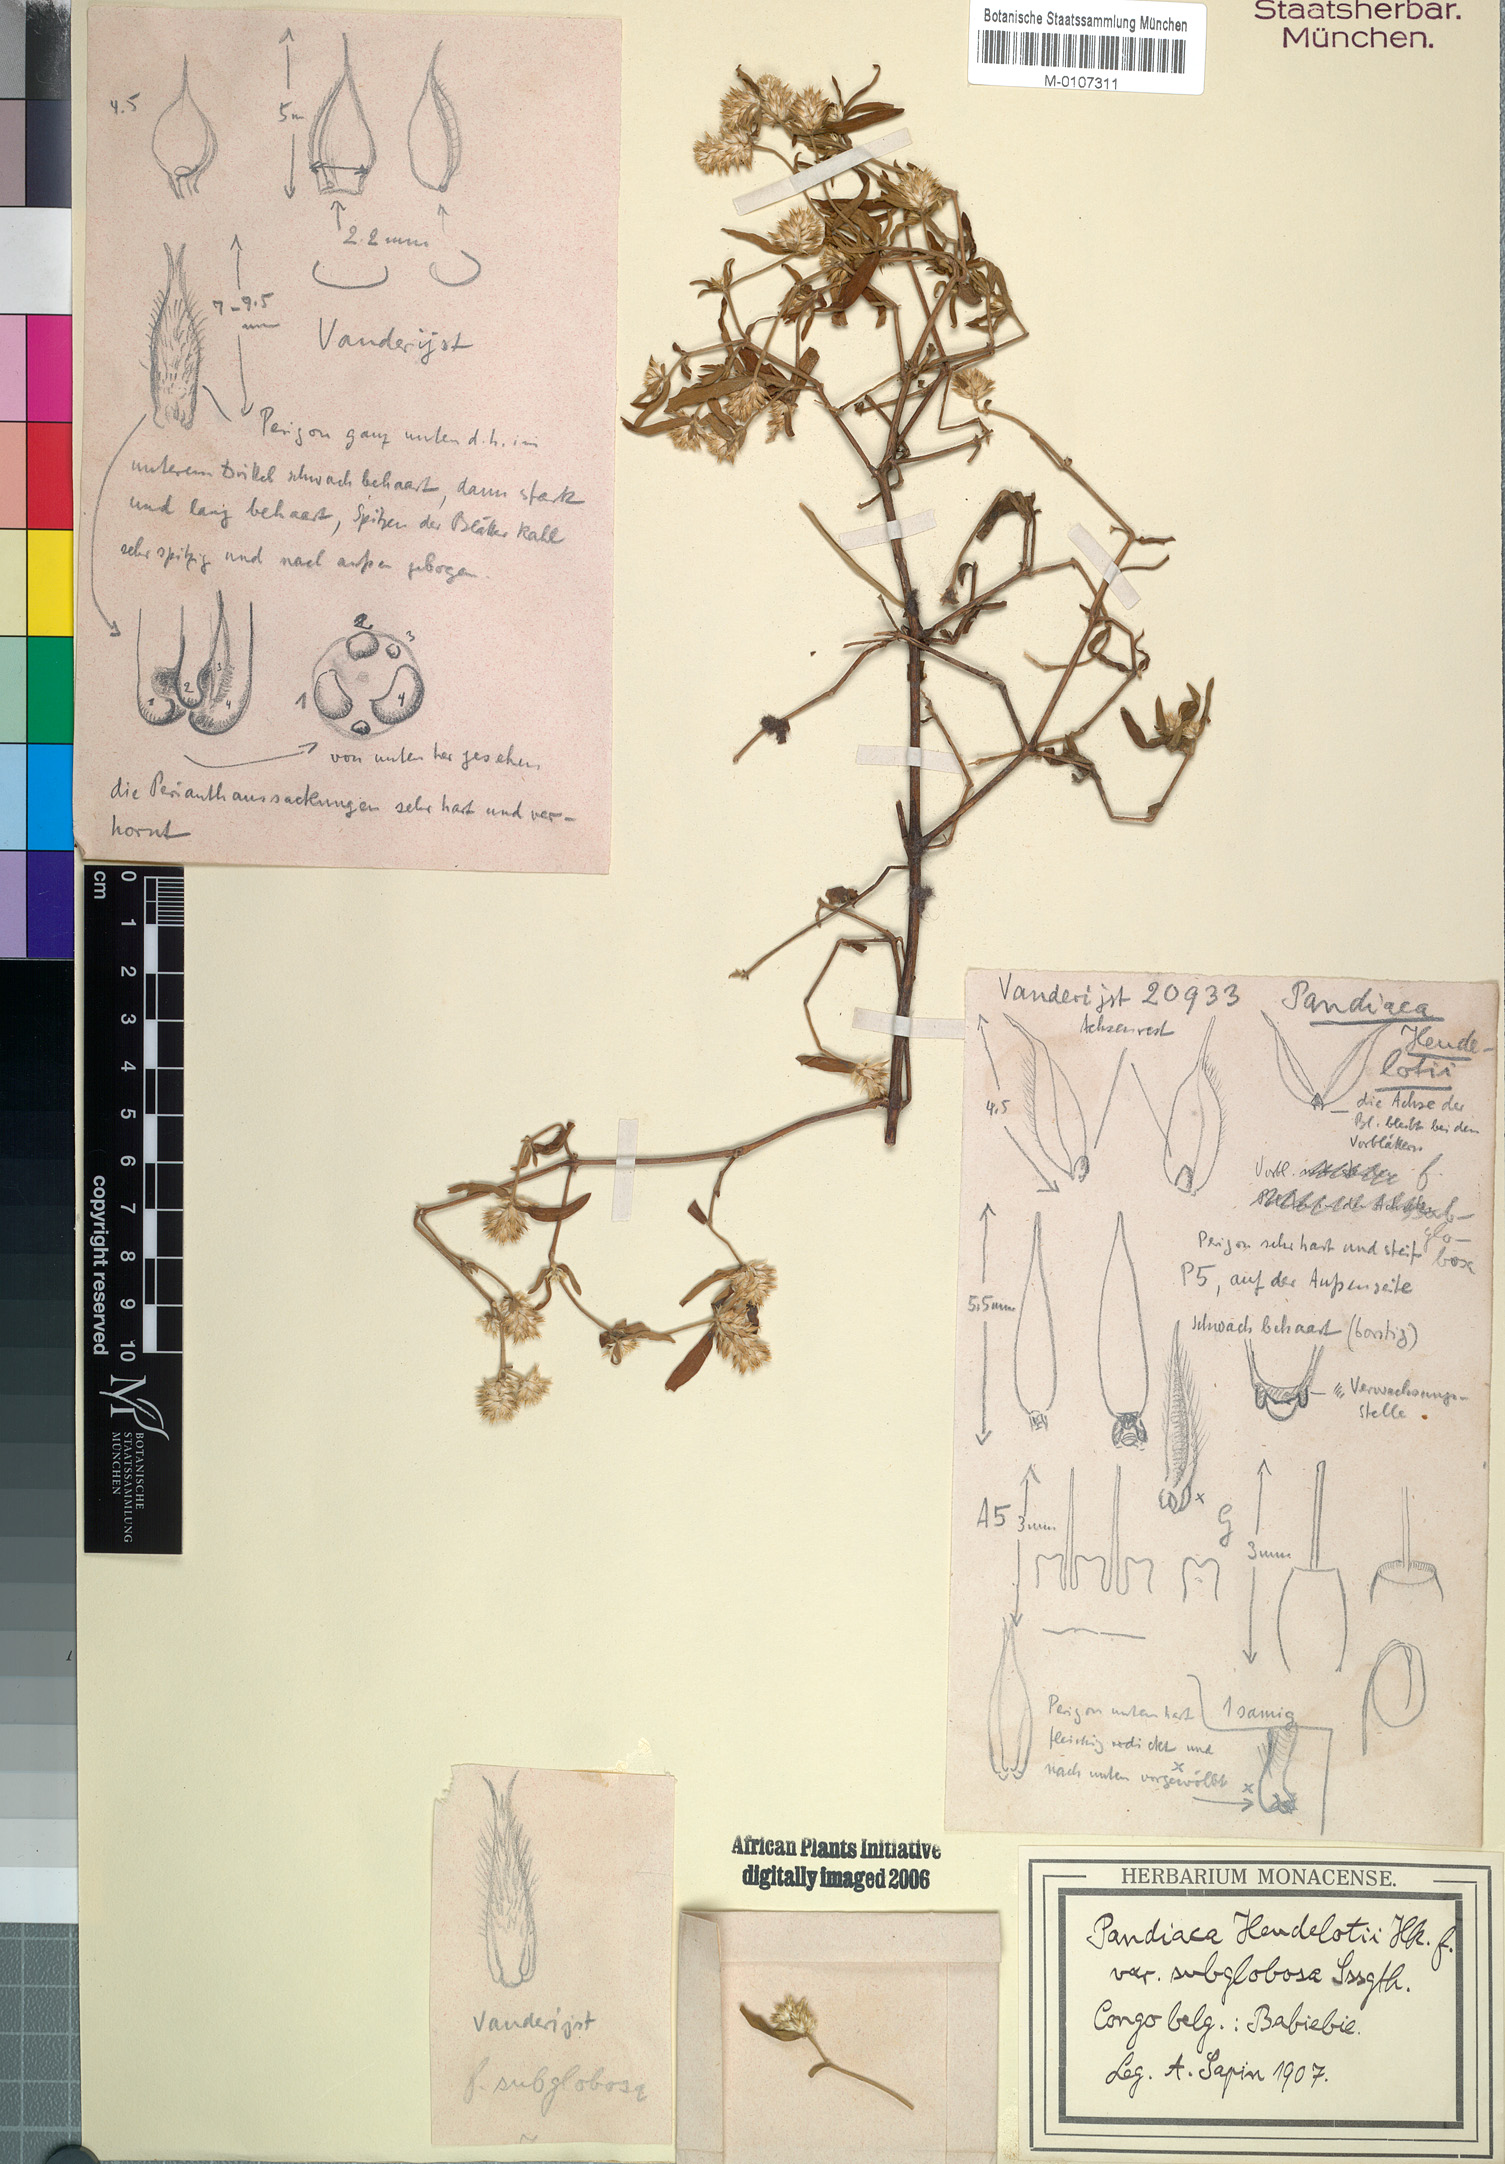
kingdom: Plantae
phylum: Tracheophyta
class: Magnoliopsida
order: Caryophyllales
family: Amaranthaceae
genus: Pandiaka
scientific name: Pandiaka angustifolia
